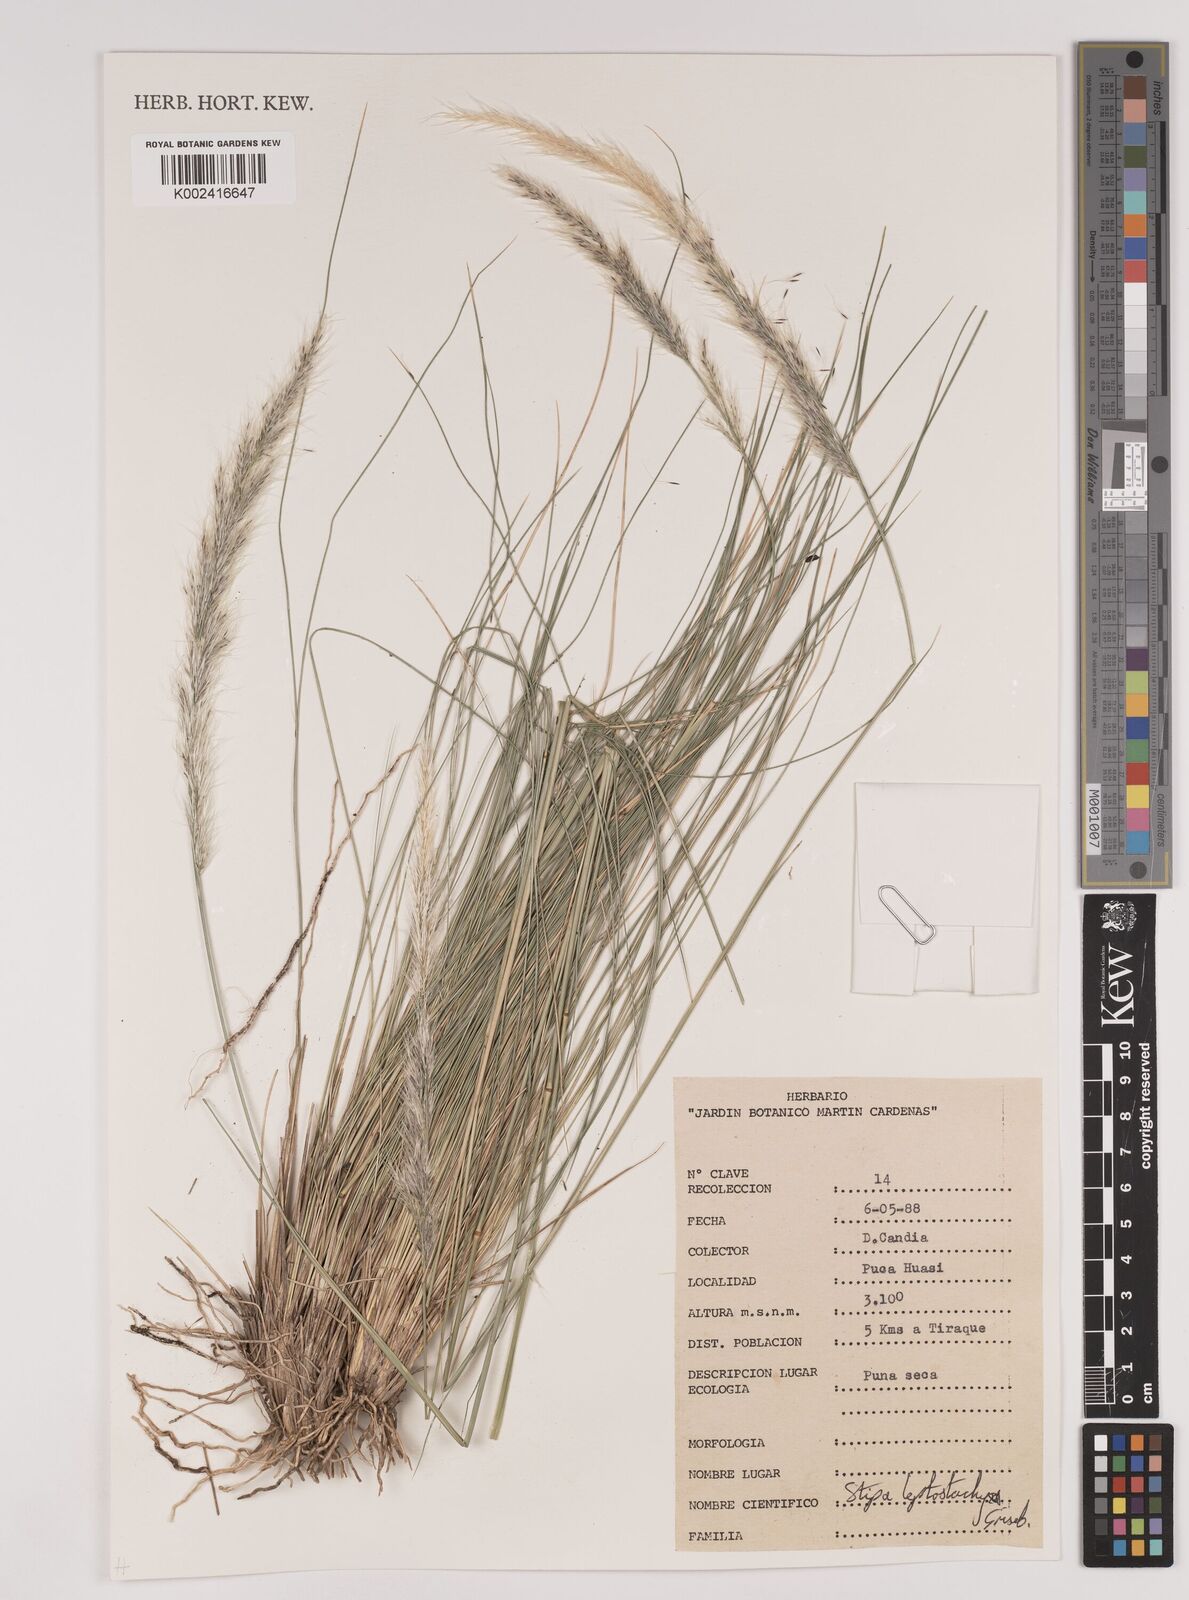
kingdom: Plantae
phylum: Tracheophyta
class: Liliopsida
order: Poales
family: Poaceae
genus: Jarava
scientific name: Jarava leptostachya
